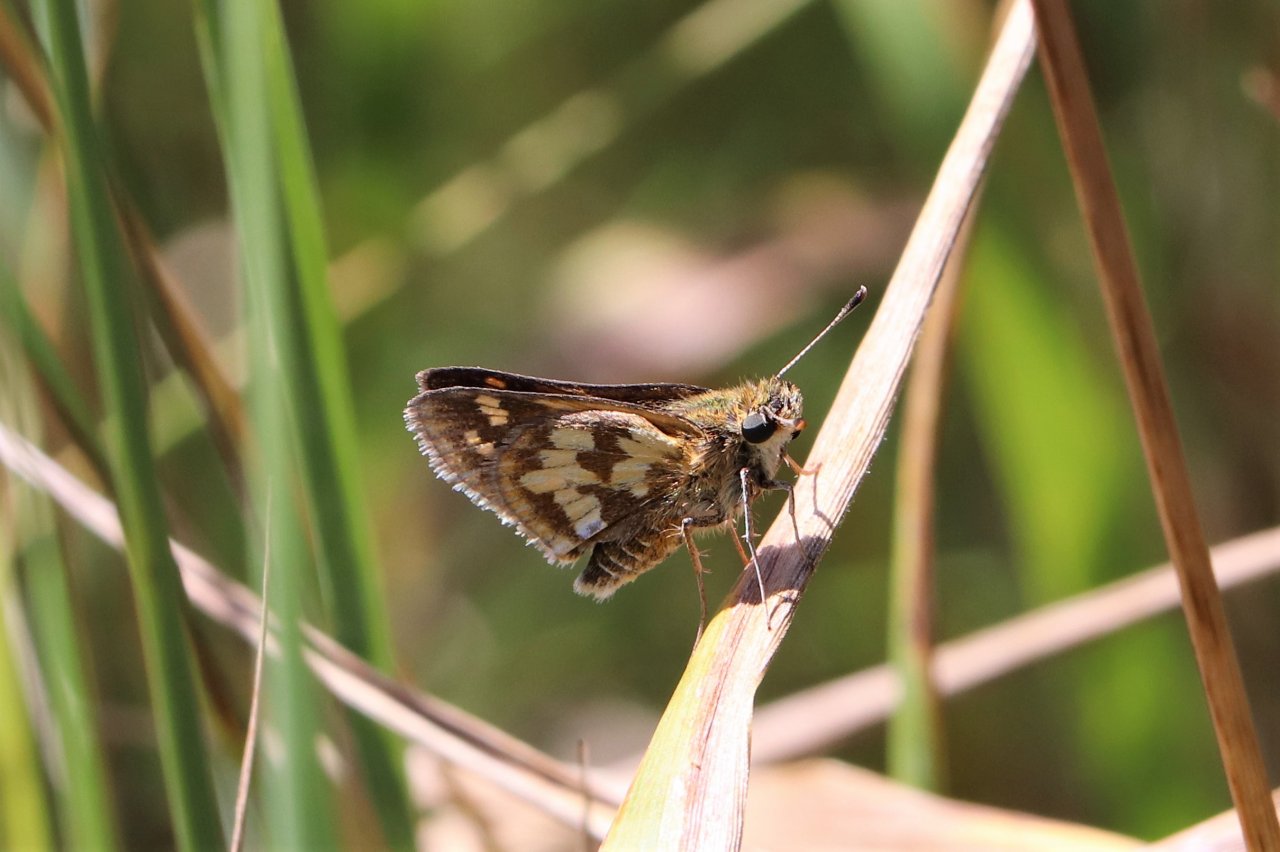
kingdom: Animalia
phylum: Arthropoda
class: Insecta
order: Lepidoptera
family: Hesperiidae
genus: Polites
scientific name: Polites coras
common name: Peck's Skipper
